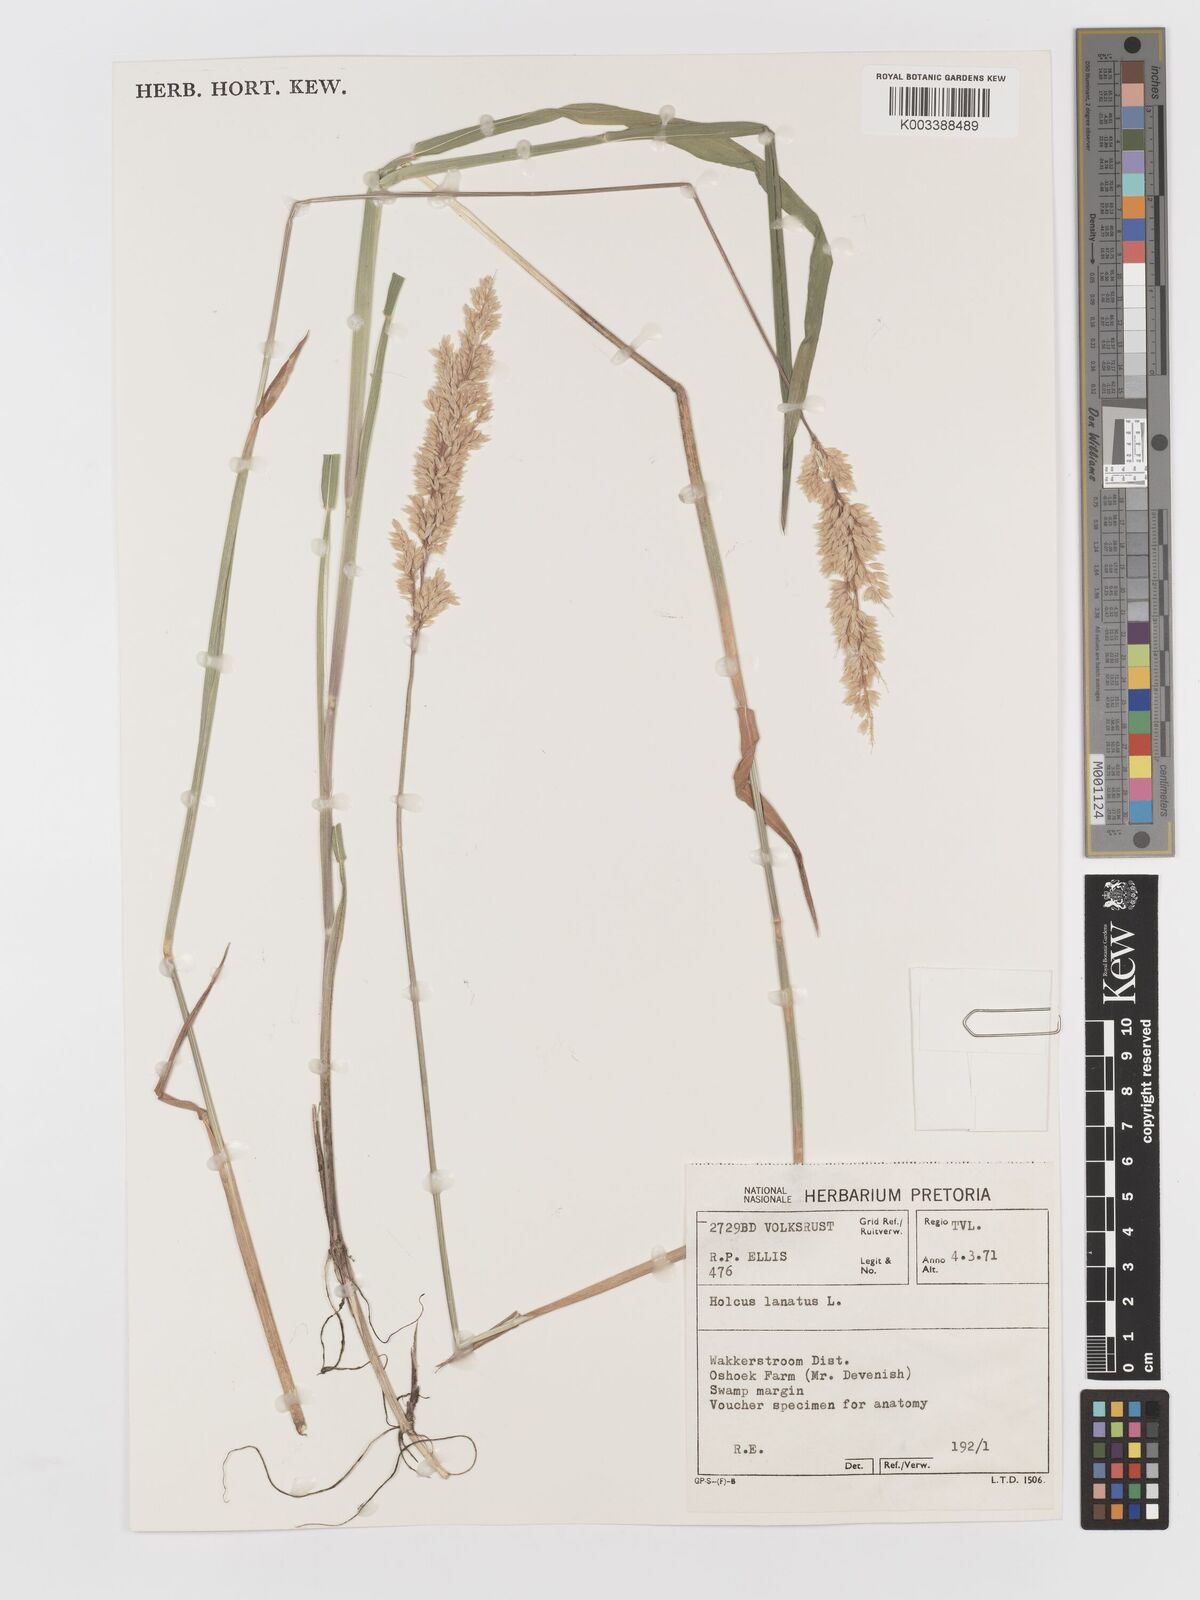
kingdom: Plantae
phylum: Tracheophyta
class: Liliopsida
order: Poales
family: Poaceae
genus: Holcus
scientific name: Holcus lanatus
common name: Yorkshire-fog
